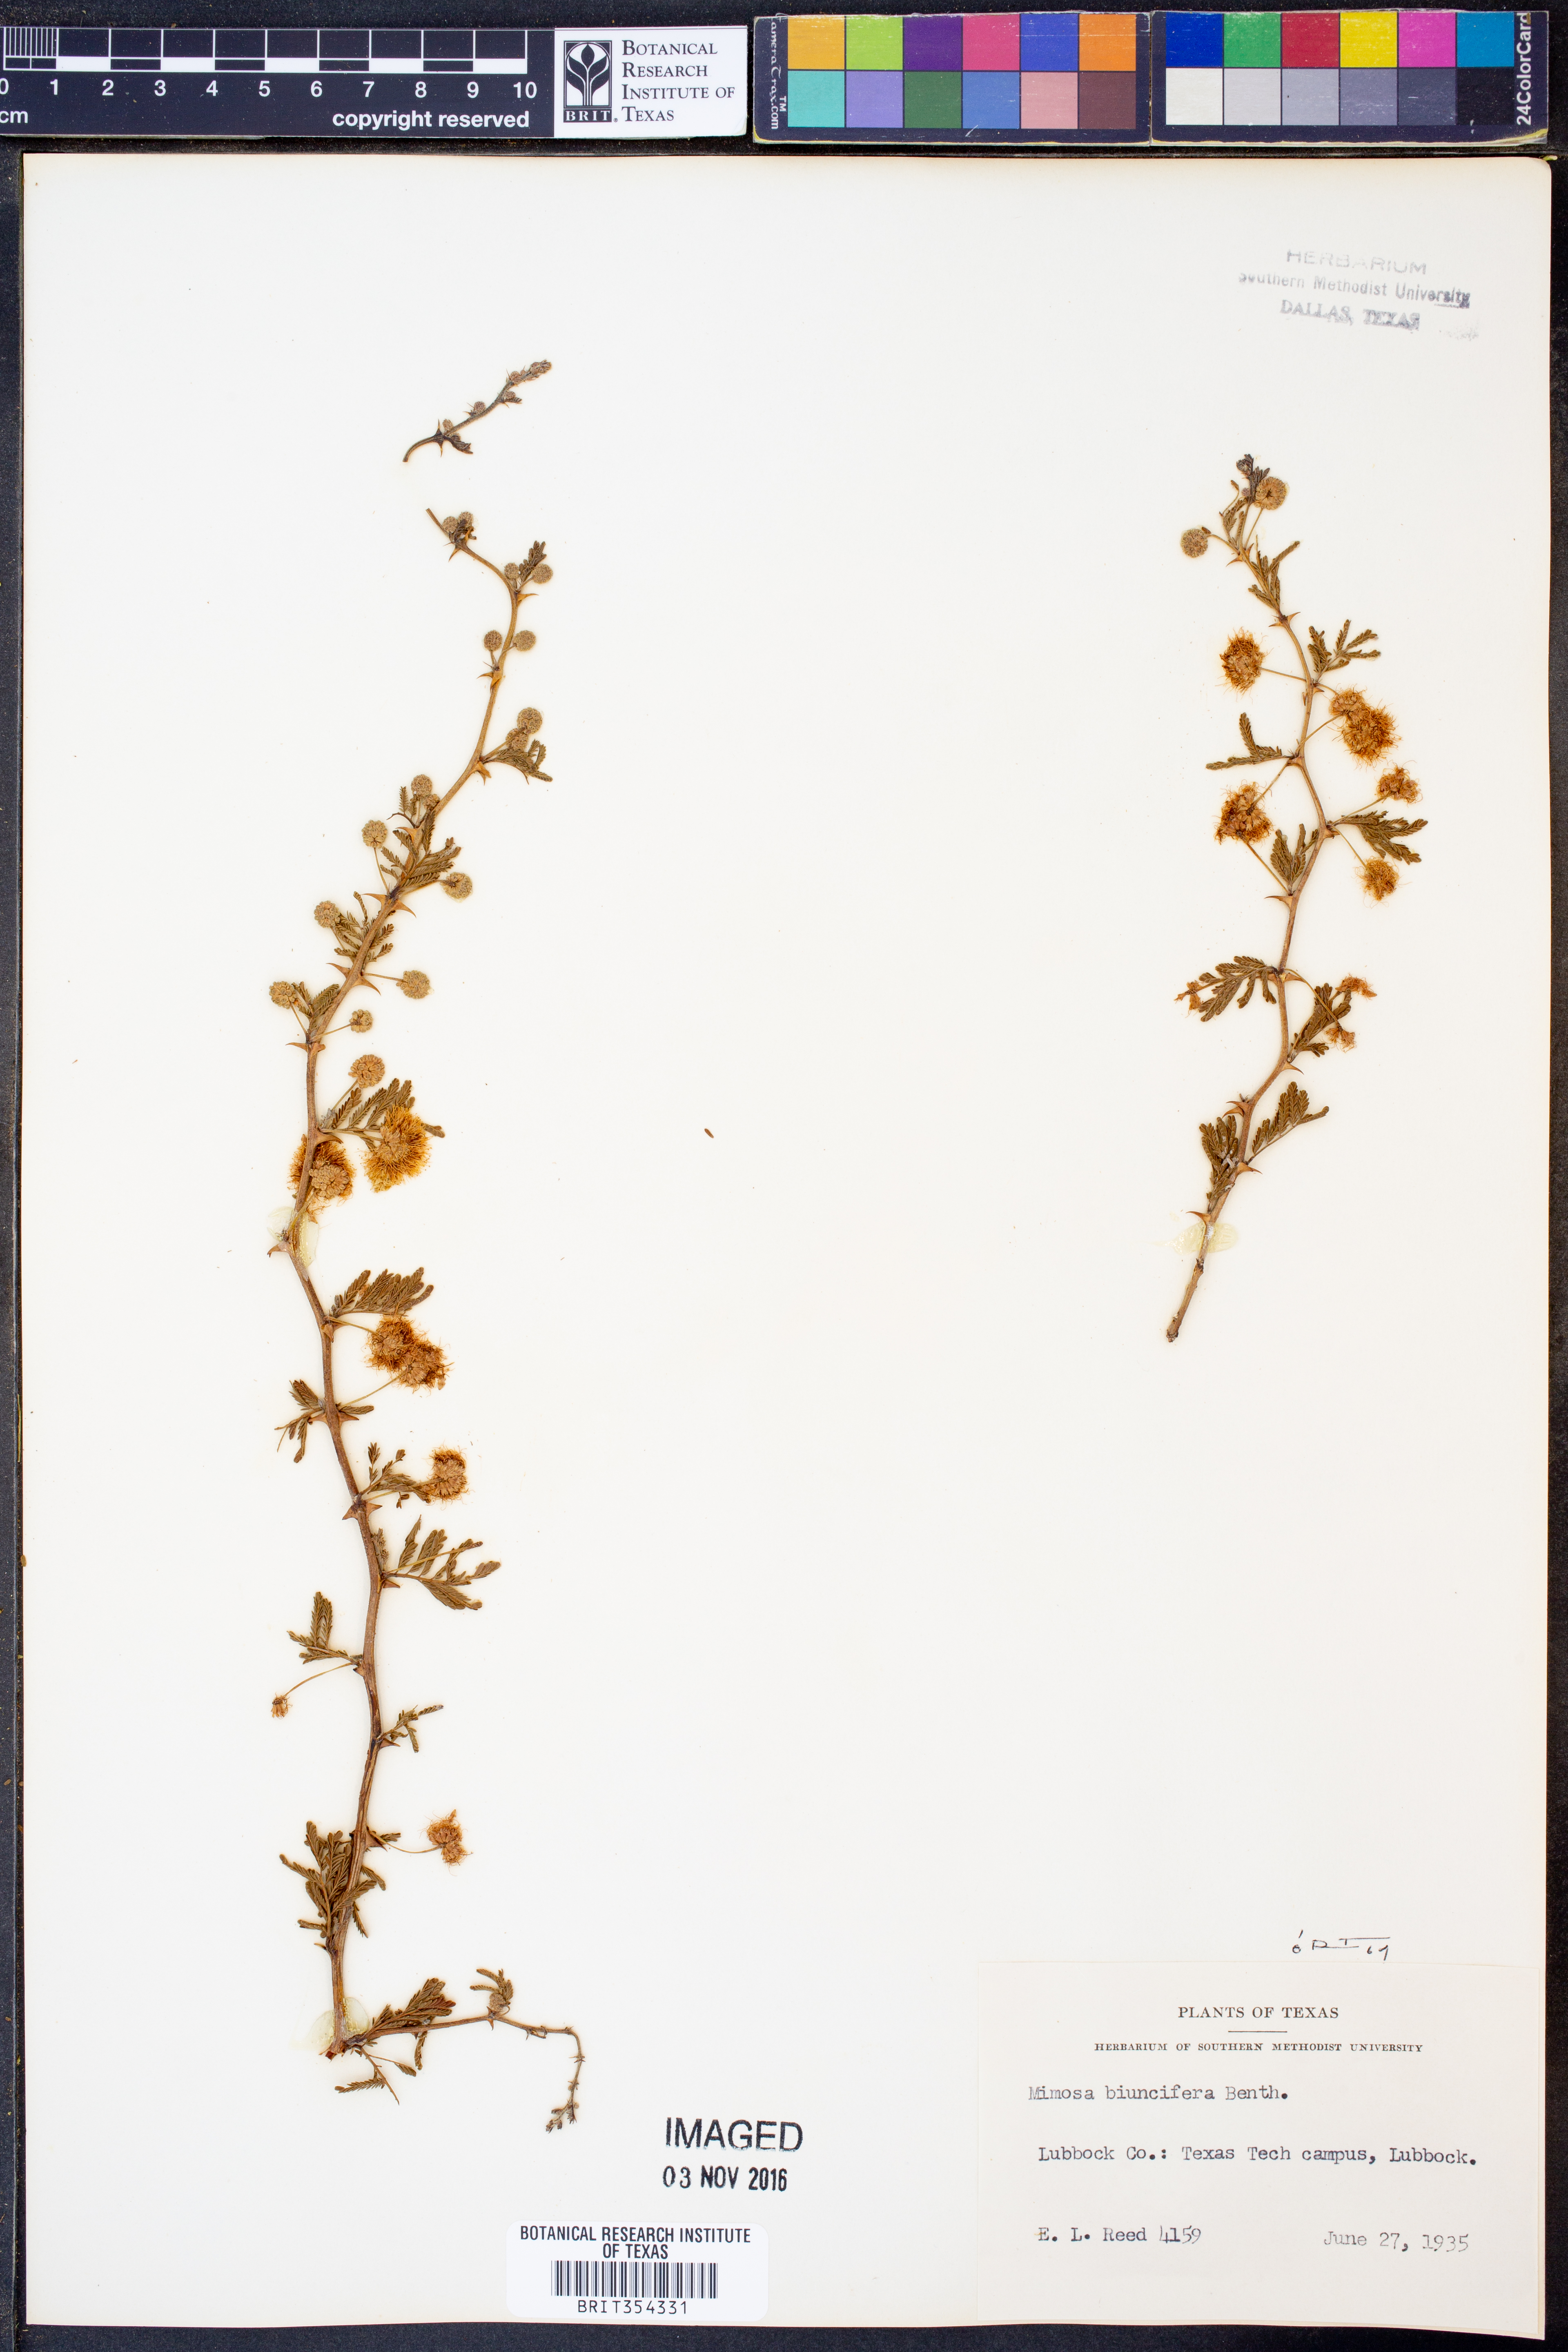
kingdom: Plantae
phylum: Tracheophyta
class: Magnoliopsida
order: Fabales
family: Fabaceae
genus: Mimosa
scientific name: Mimosa biuncifera
